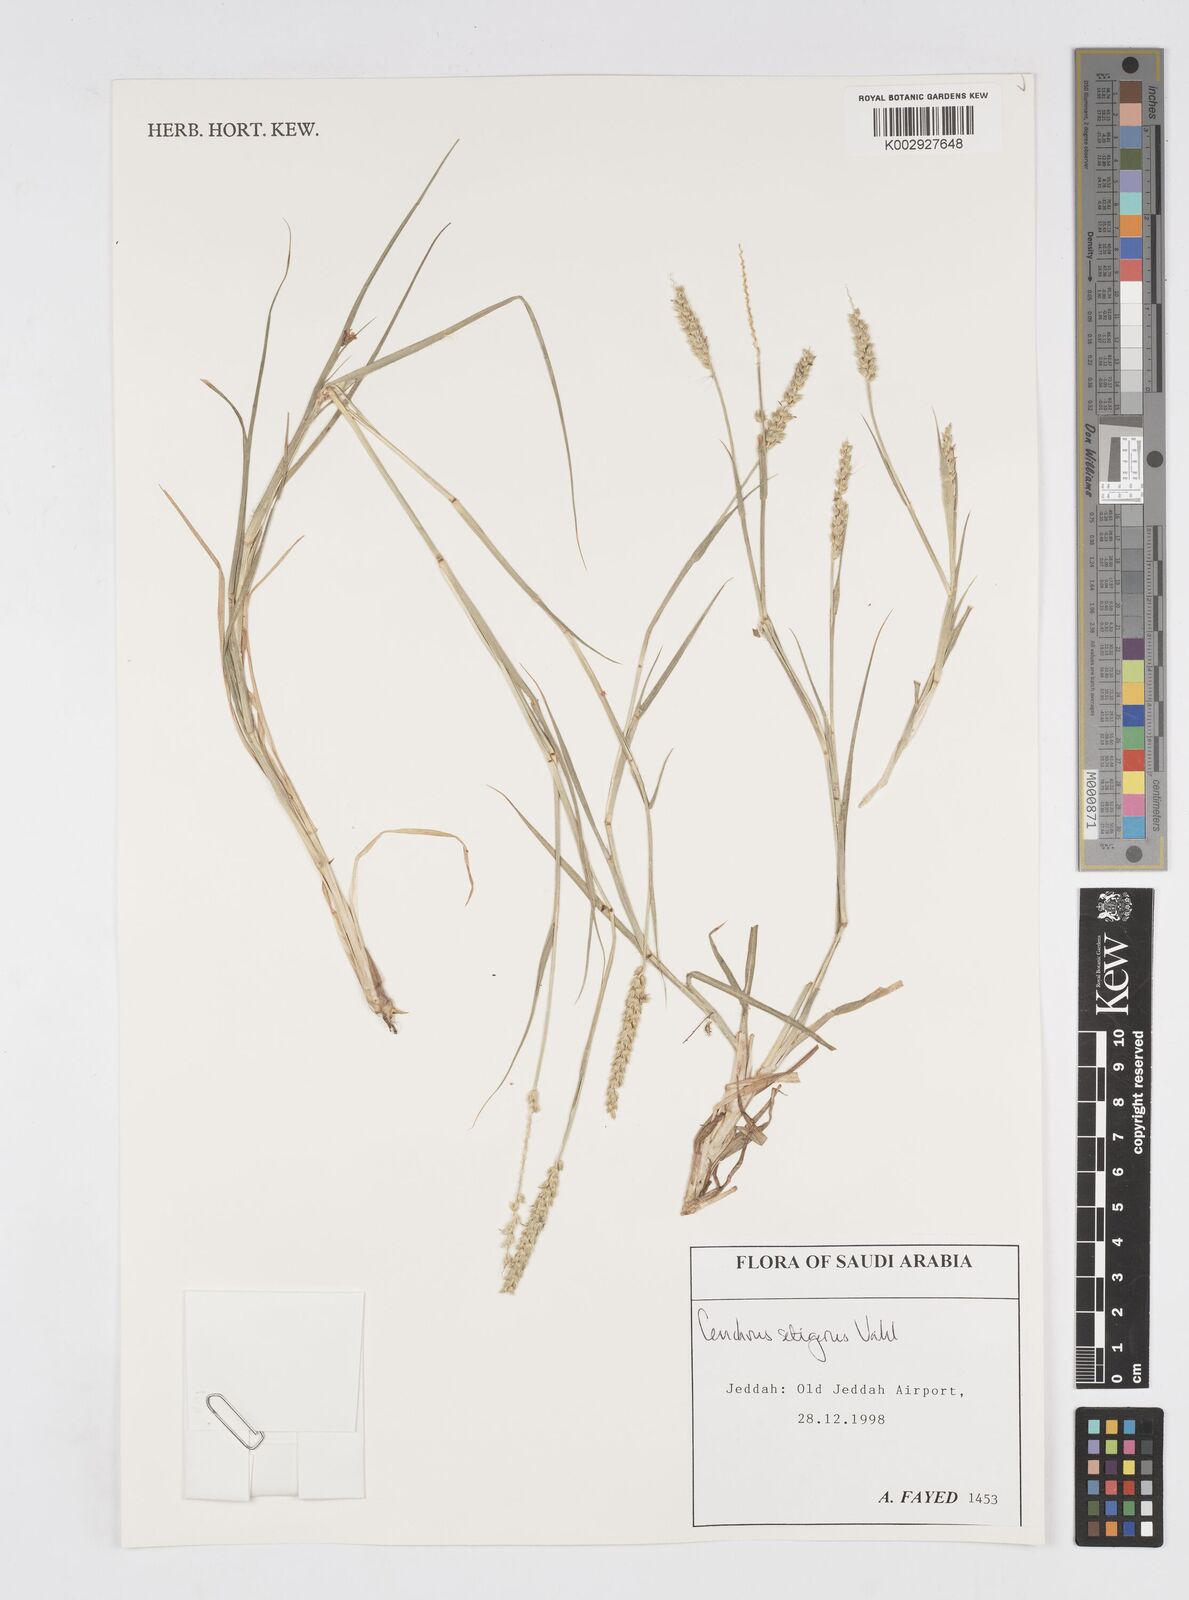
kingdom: Plantae
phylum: Tracheophyta
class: Liliopsida
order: Poales
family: Poaceae
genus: Cenchrus
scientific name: Cenchrus setigerus
